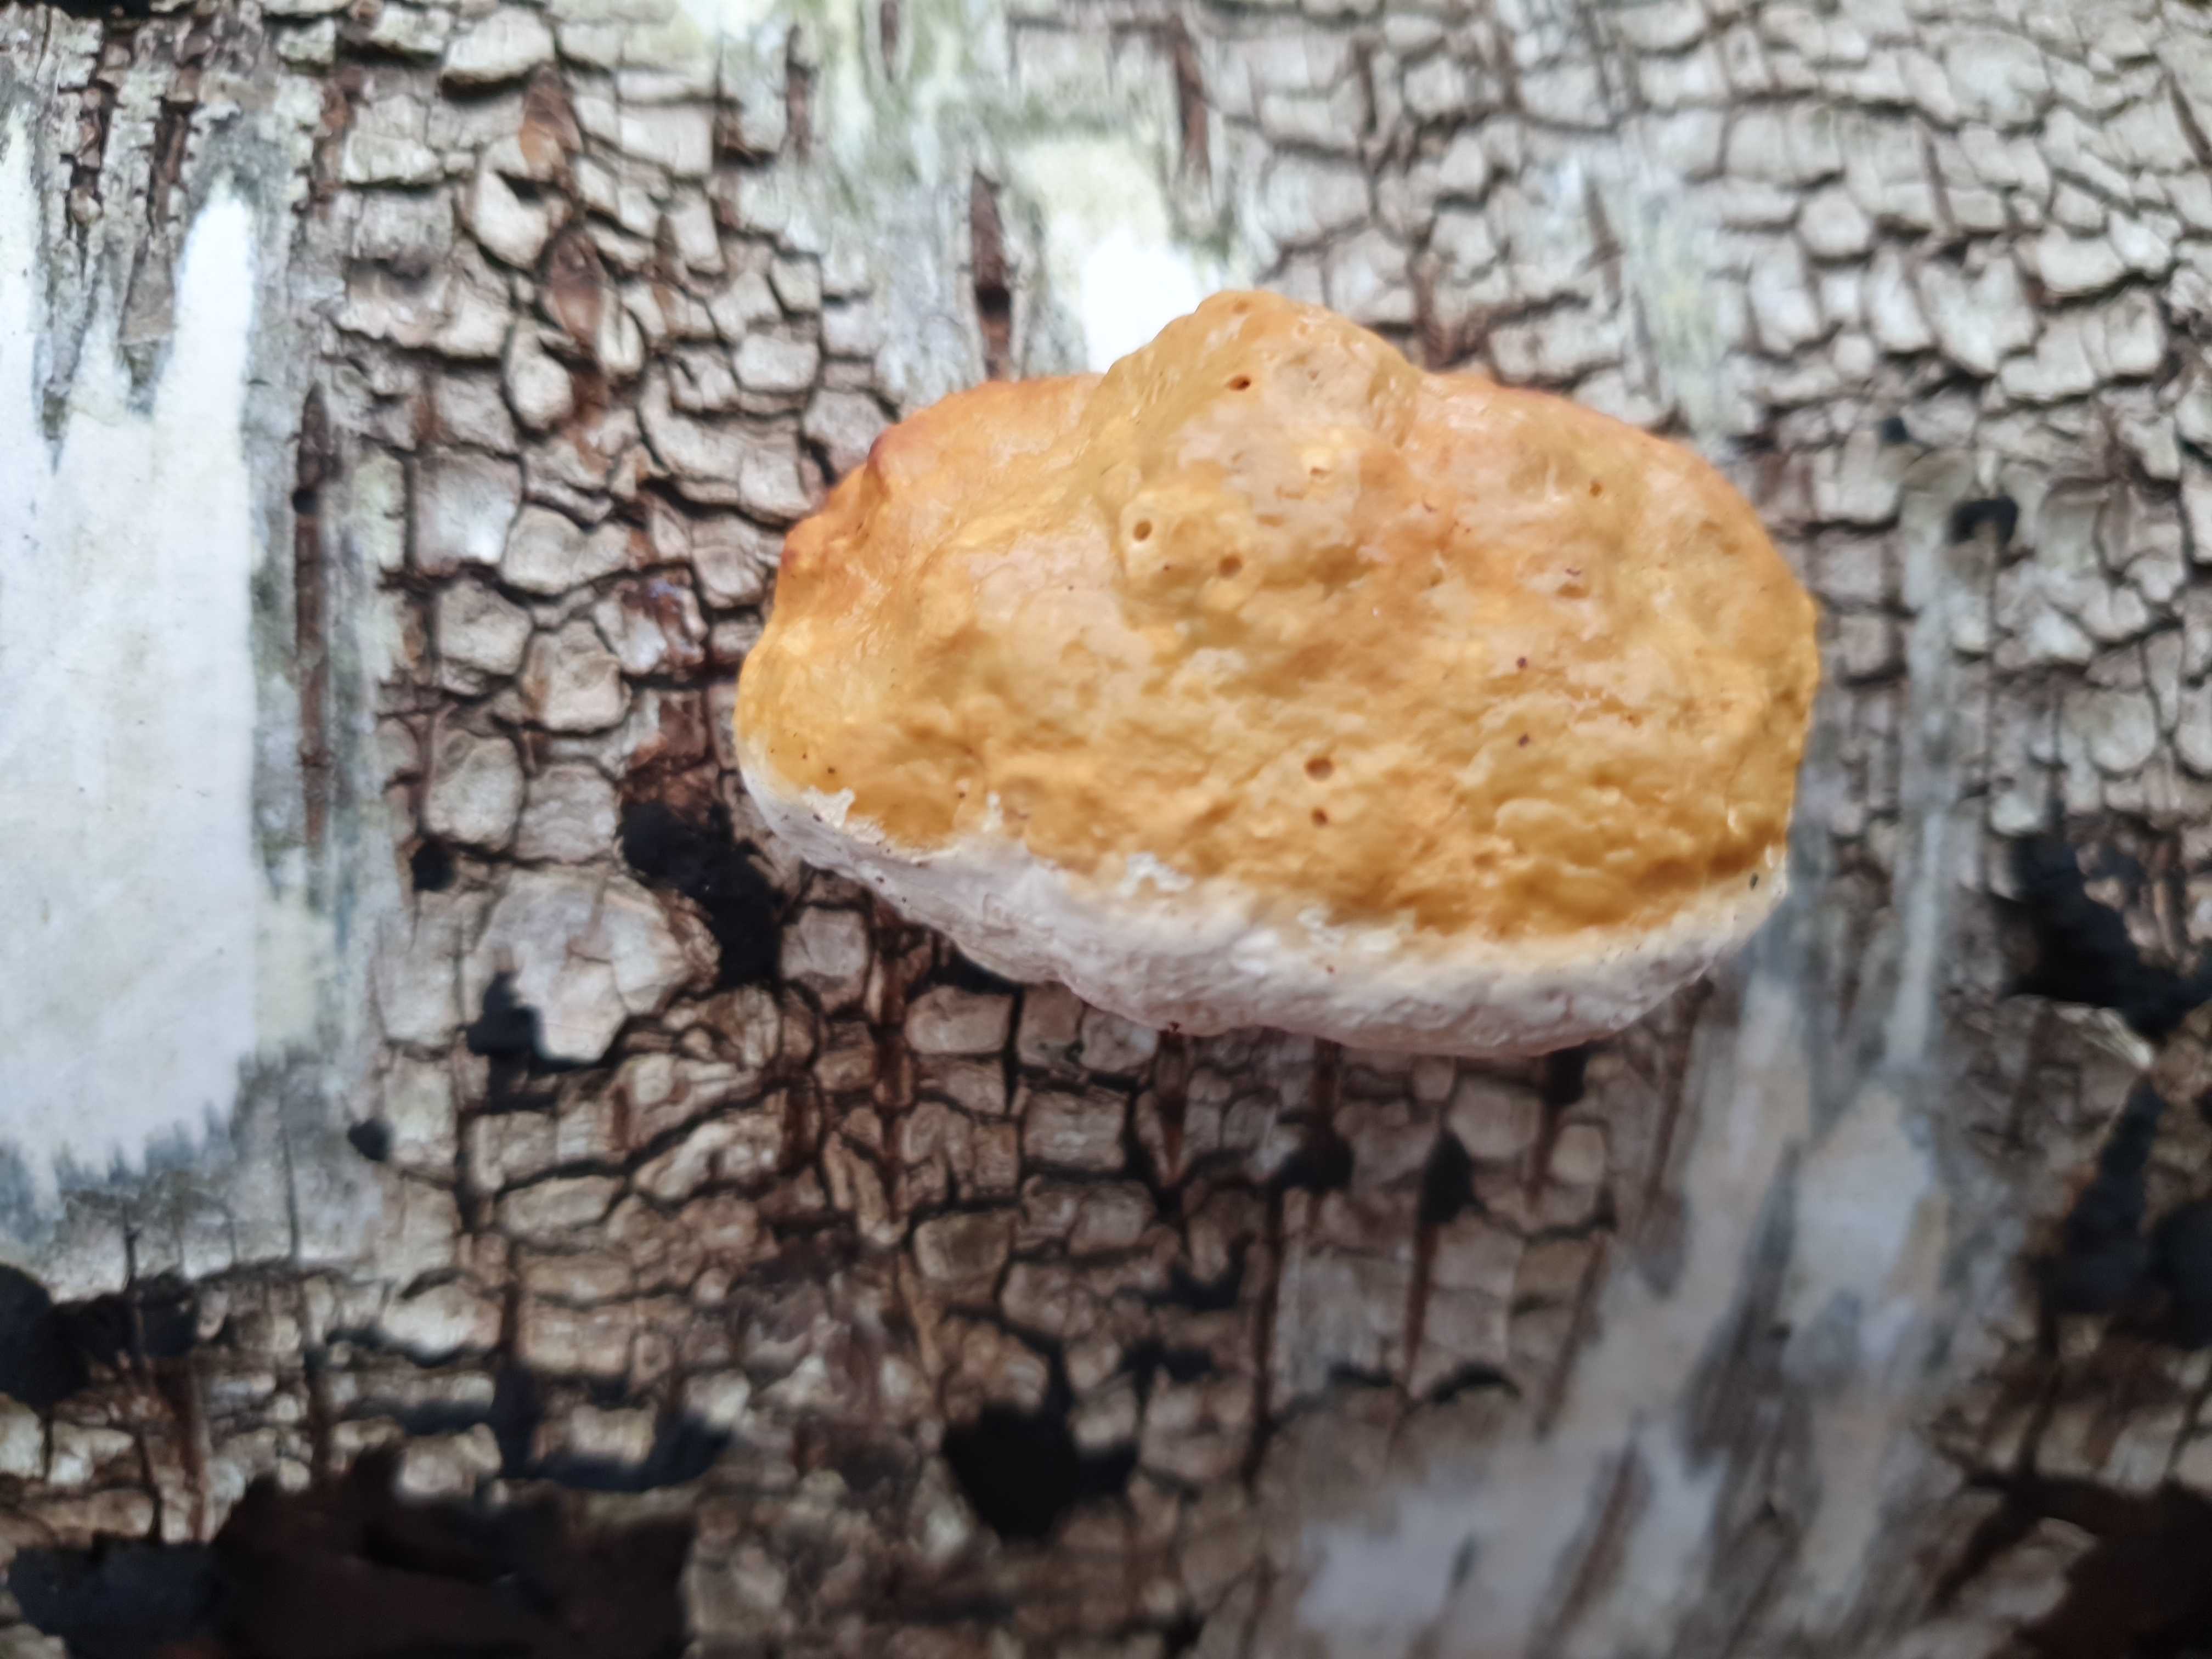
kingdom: Fungi
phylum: Basidiomycota
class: Agaricomycetes
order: Polyporales
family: Fomitopsidaceae
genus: Fomitopsis
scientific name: Fomitopsis pinicola
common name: randbæltet hovporesvamp
